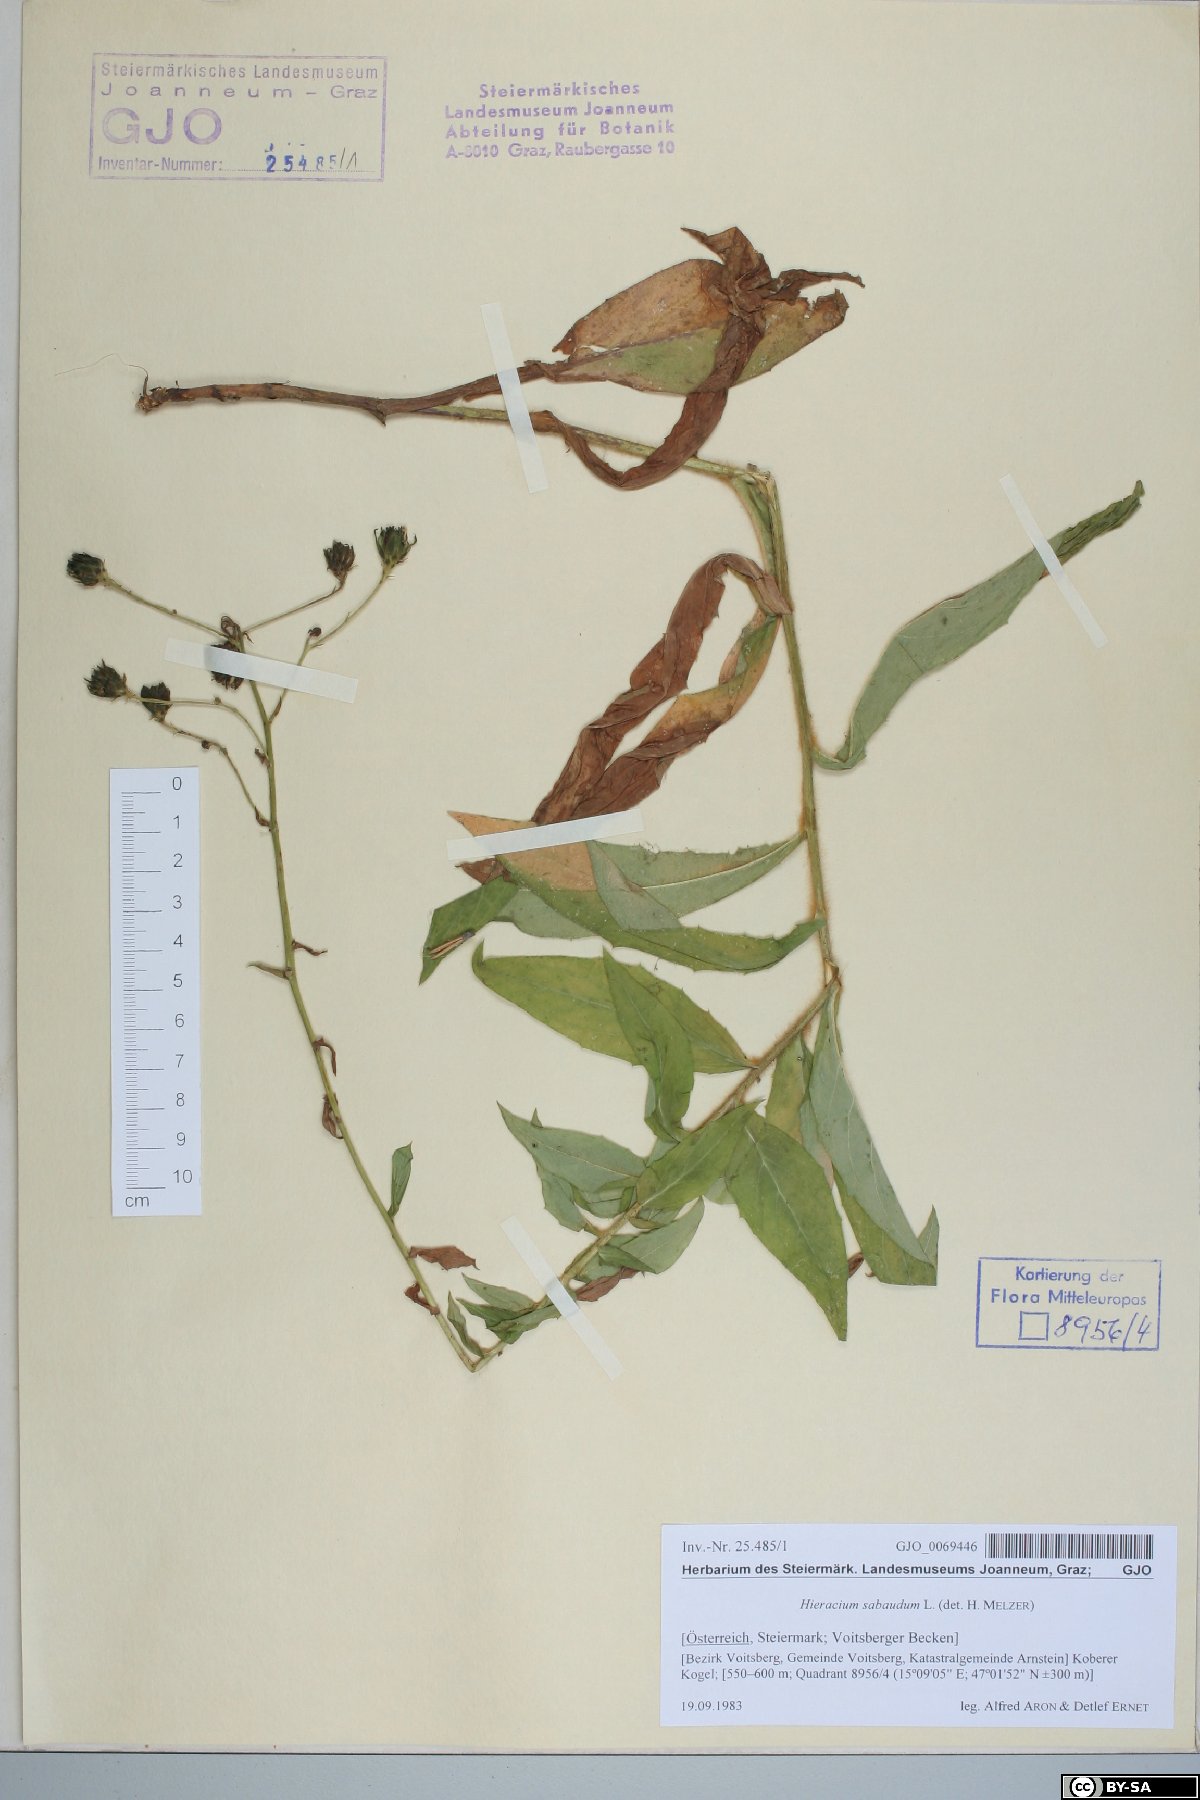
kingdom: Plantae
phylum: Tracheophyta
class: Magnoliopsida
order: Asterales
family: Asteraceae
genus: Hieracium
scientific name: Hieracium sabaudum
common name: New england hawkweed
